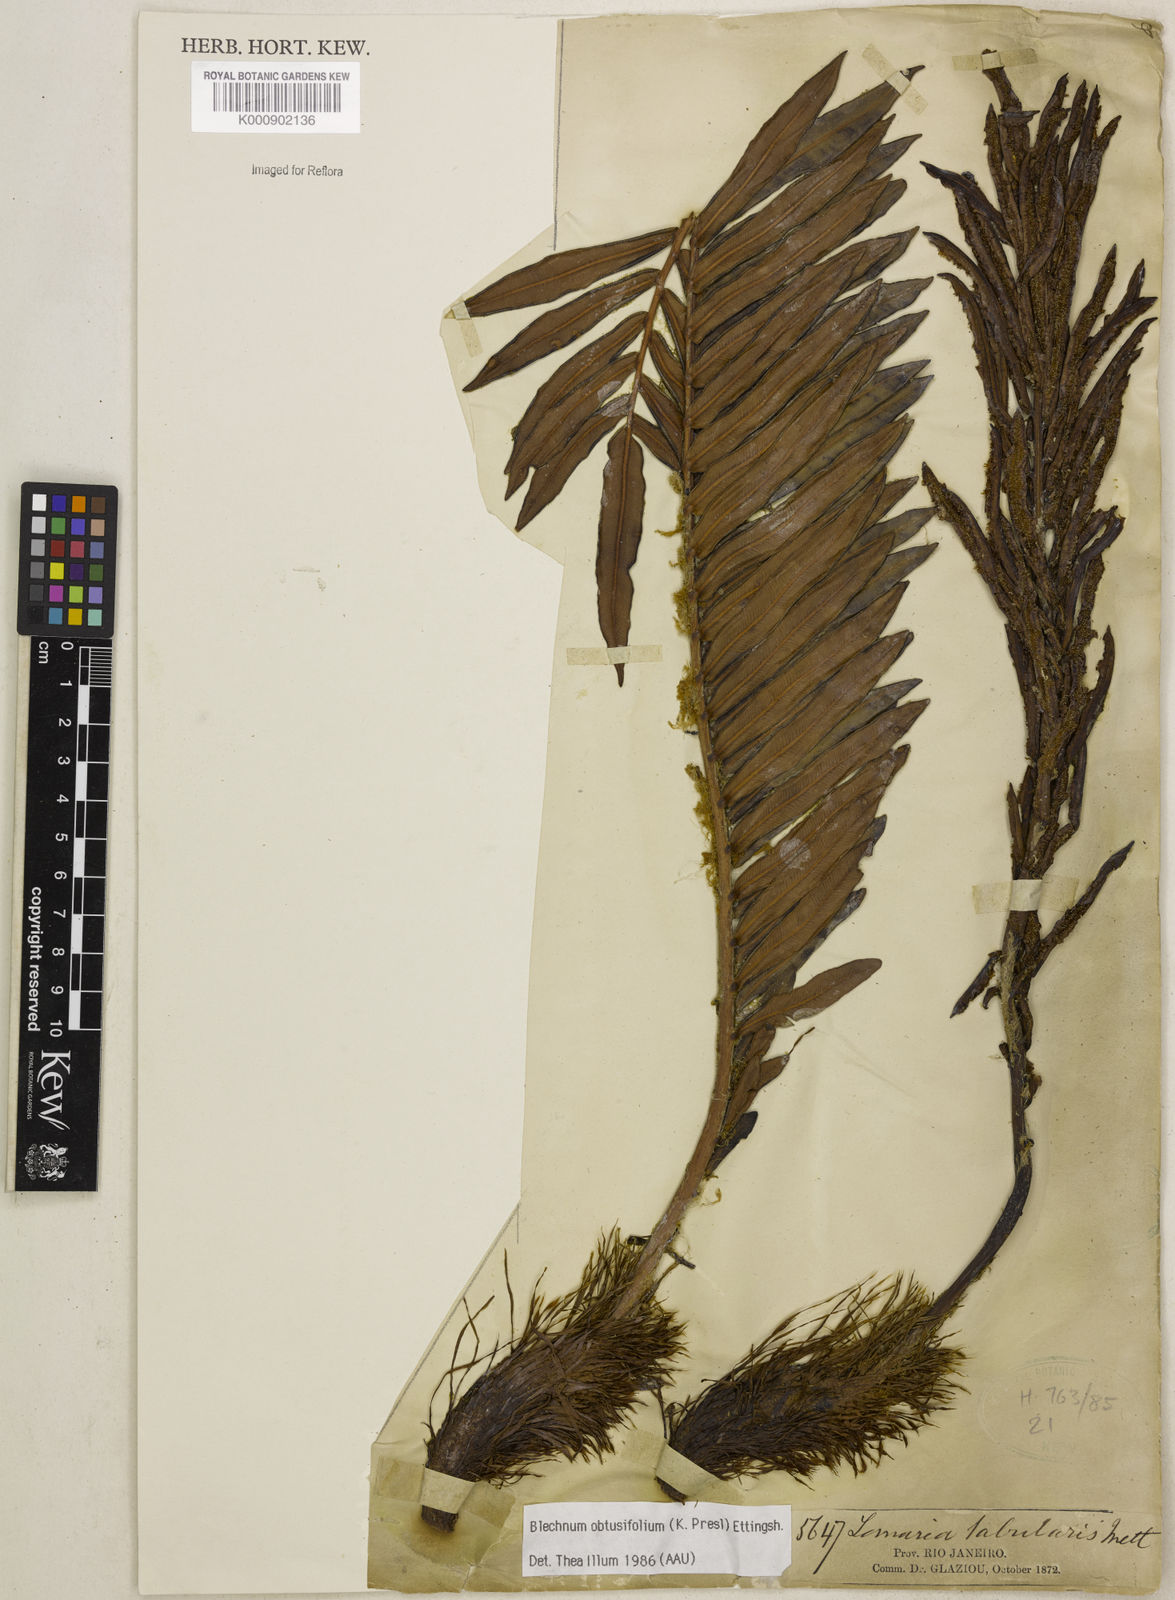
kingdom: Plantae
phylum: Tracheophyta
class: Polypodiopsida
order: Polypodiales
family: Blechnaceae
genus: Lomariocycas
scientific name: Lomariocycas obtusifolia
